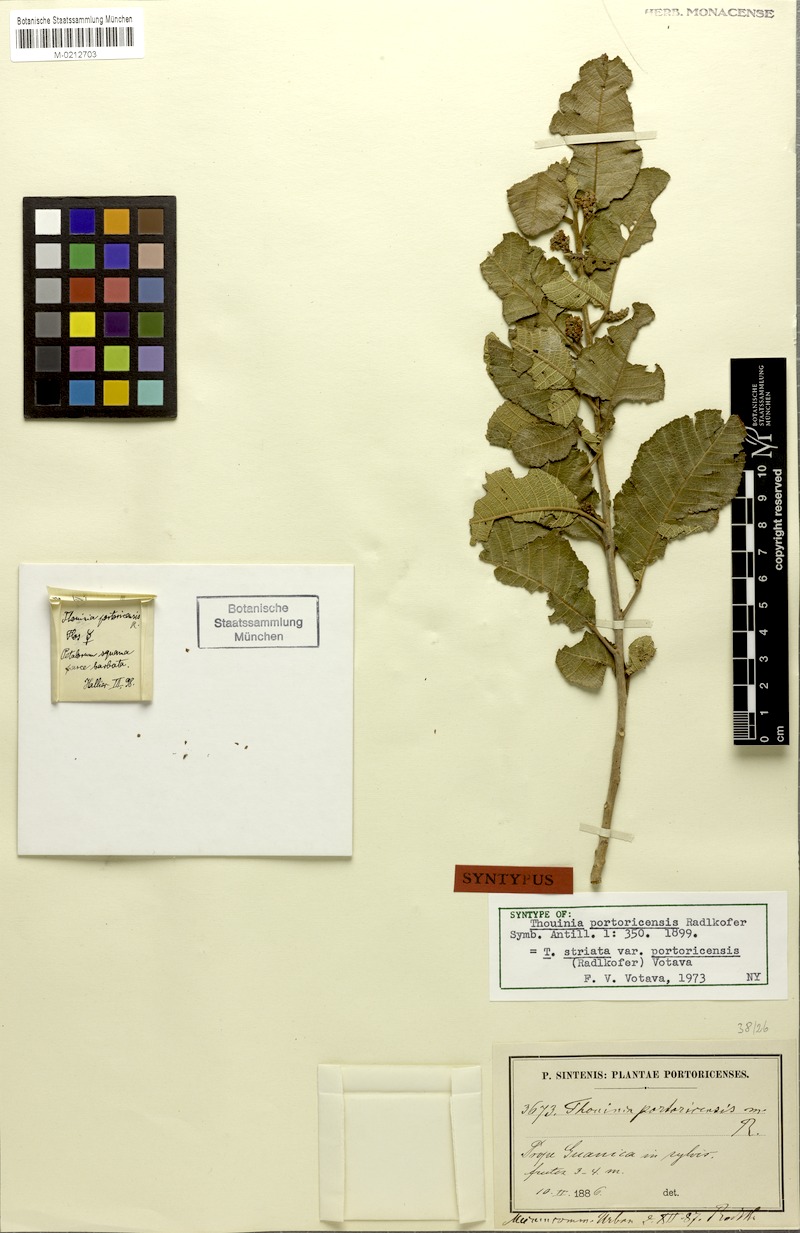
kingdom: Plantae
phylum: Tracheophyta
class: Magnoliopsida
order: Sapindales
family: Sapindaceae
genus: Thouinia
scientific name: Thouinia striata
